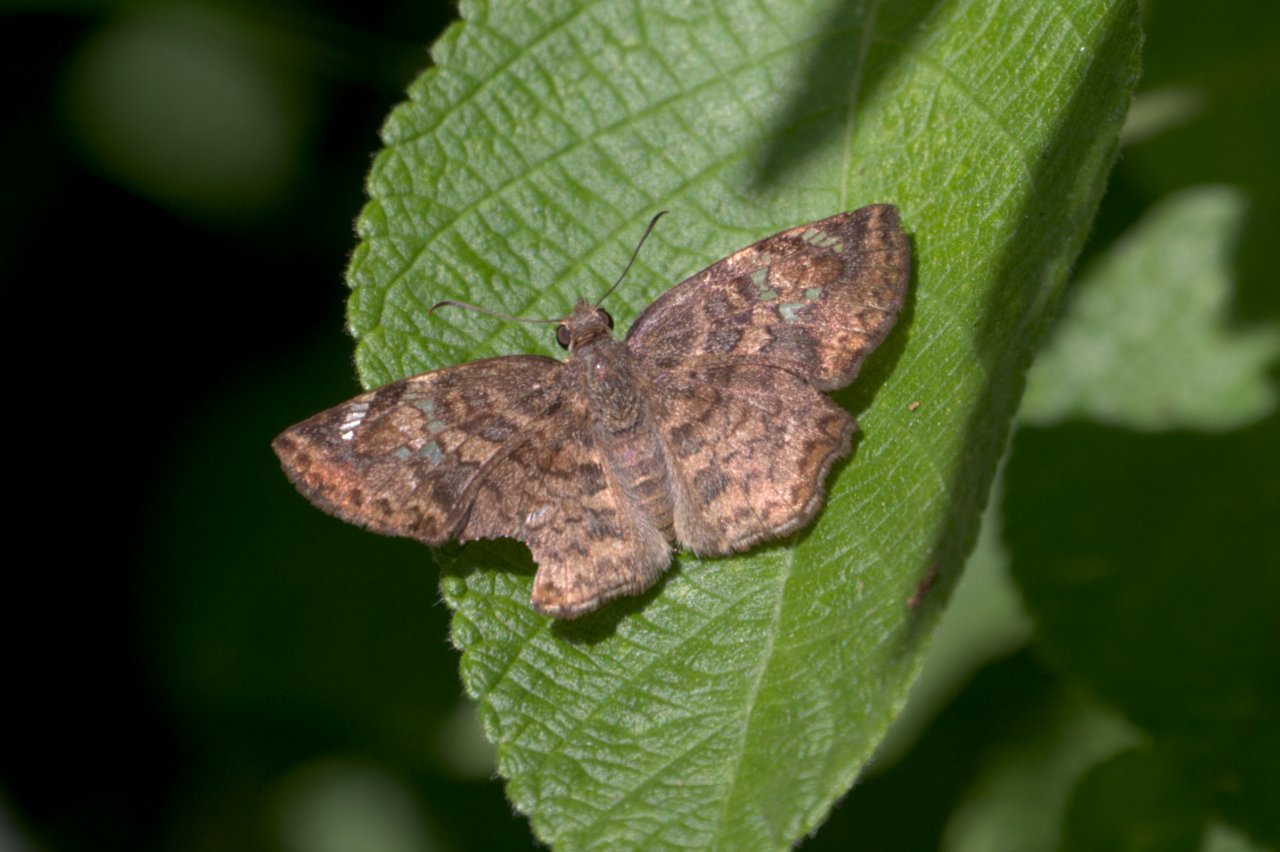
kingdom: Animalia
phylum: Arthropoda
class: Insecta
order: Lepidoptera
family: Hesperiidae
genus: Antigonus
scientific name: Antigonus erosus
